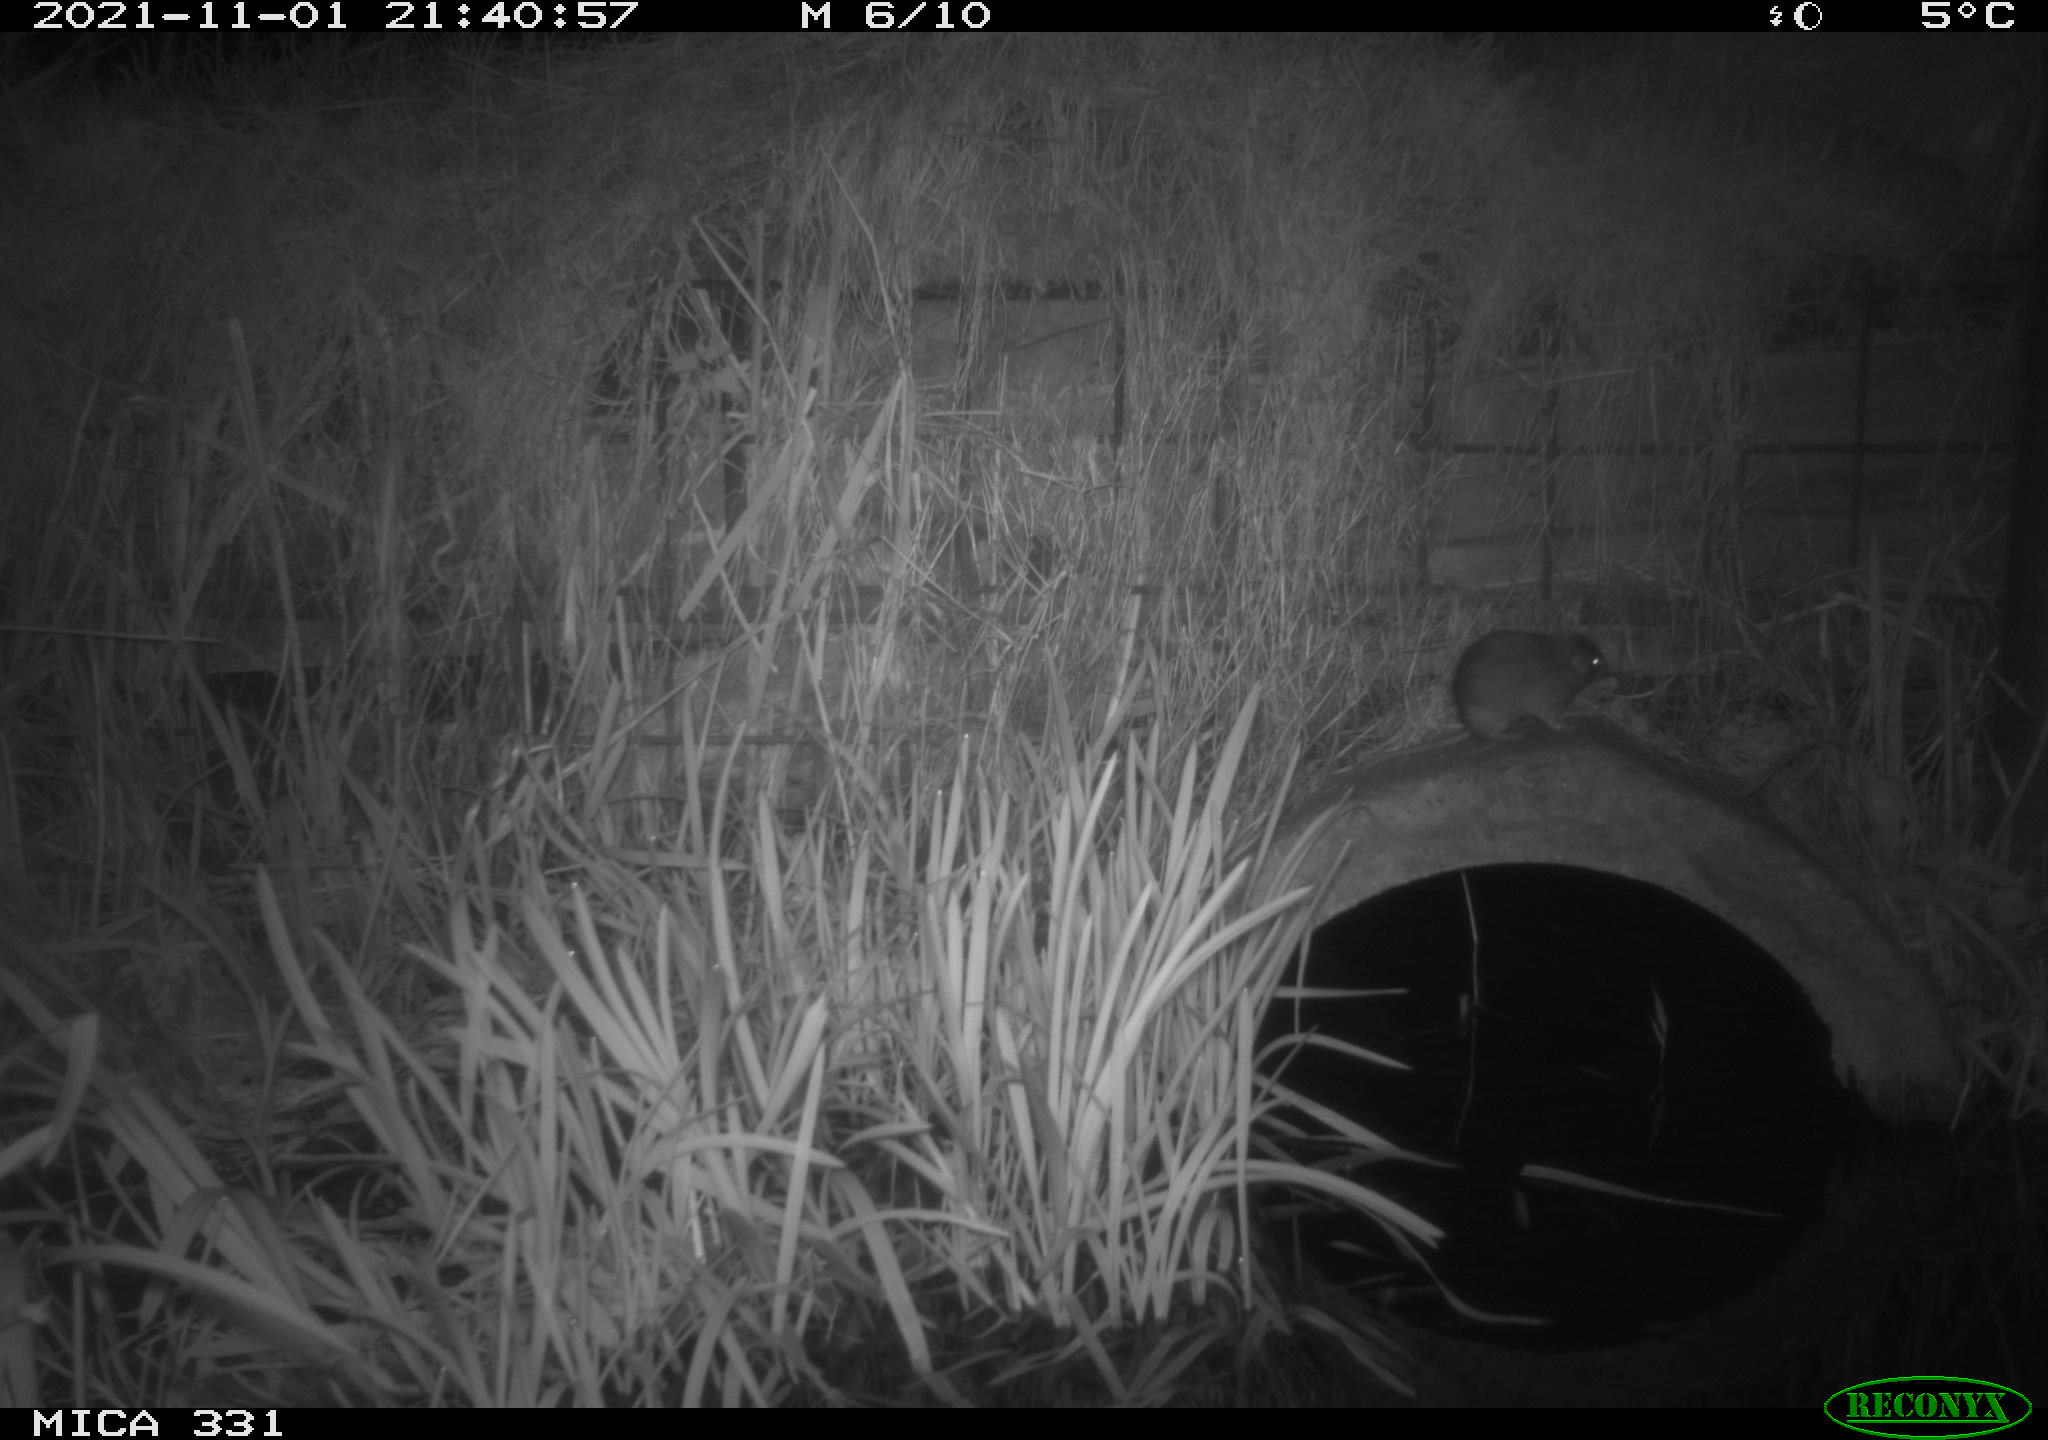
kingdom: Animalia
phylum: Chordata
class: Mammalia
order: Rodentia
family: Muridae
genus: Rattus
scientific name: Rattus norvegicus
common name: Brown rat
